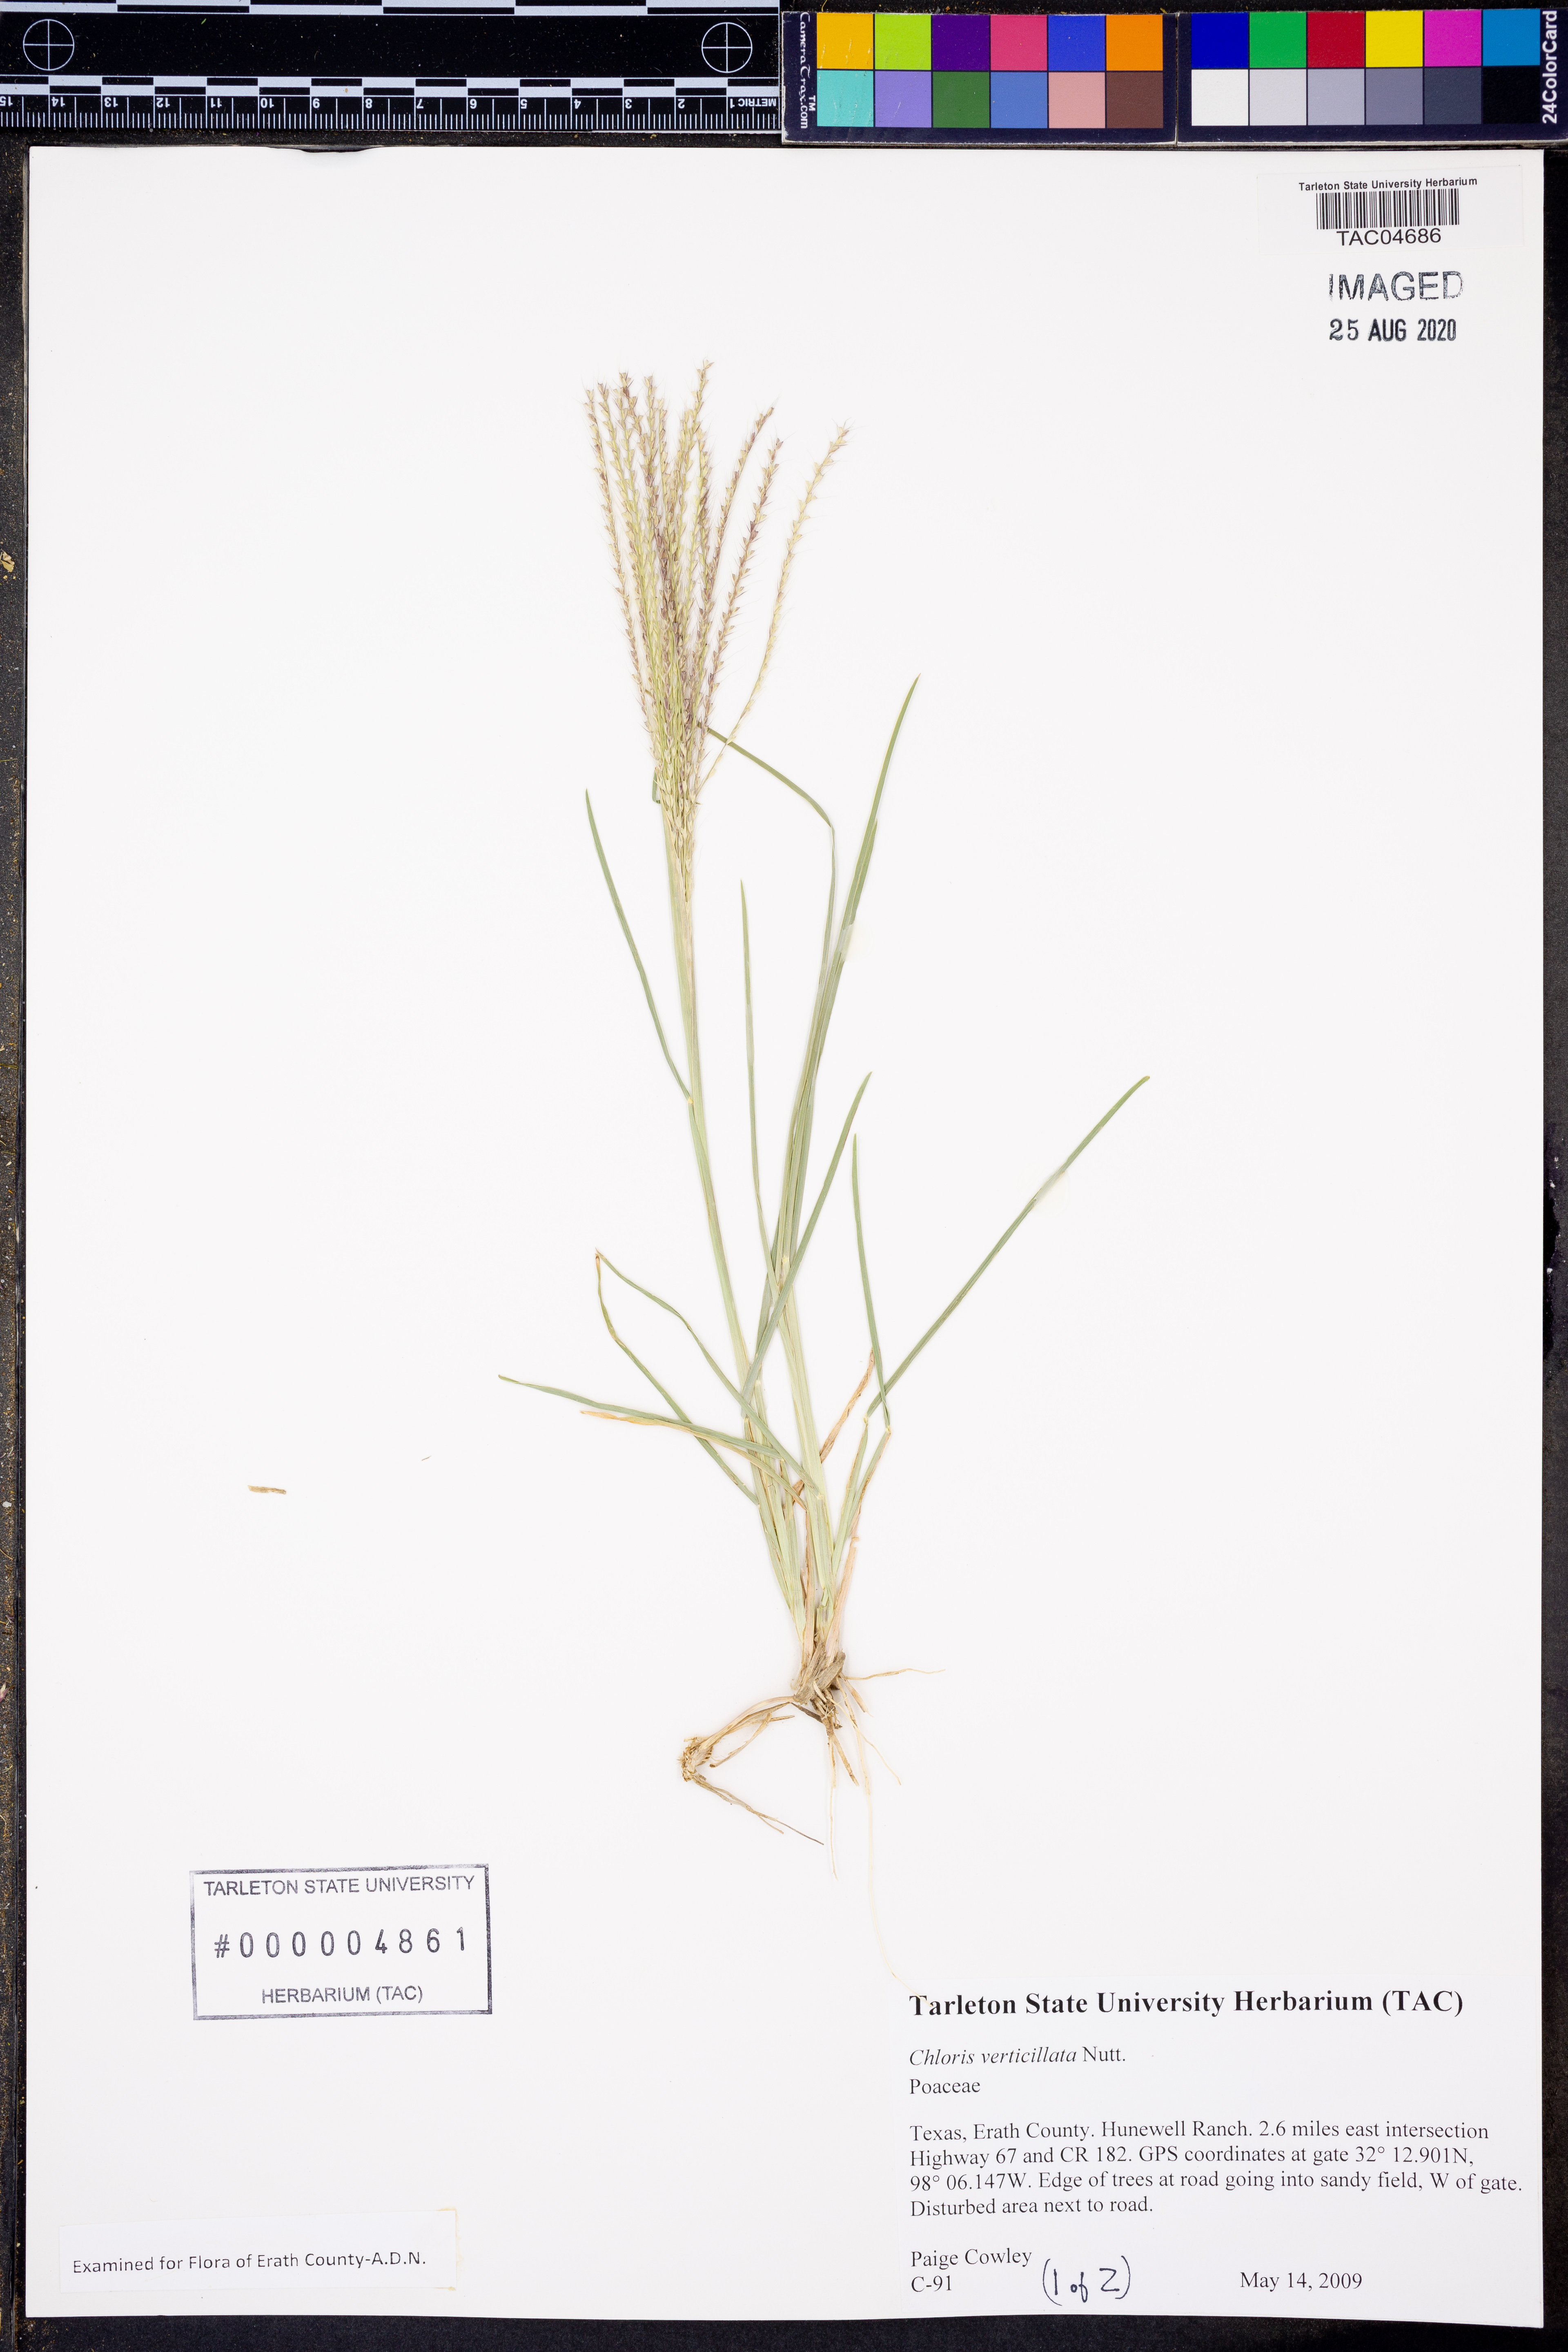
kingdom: Plantae
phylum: Tracheophyta
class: Liliopsida
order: Poales
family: Poaceae
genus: Chloris
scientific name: Chloris virgata
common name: Feathery rhodes-grass
